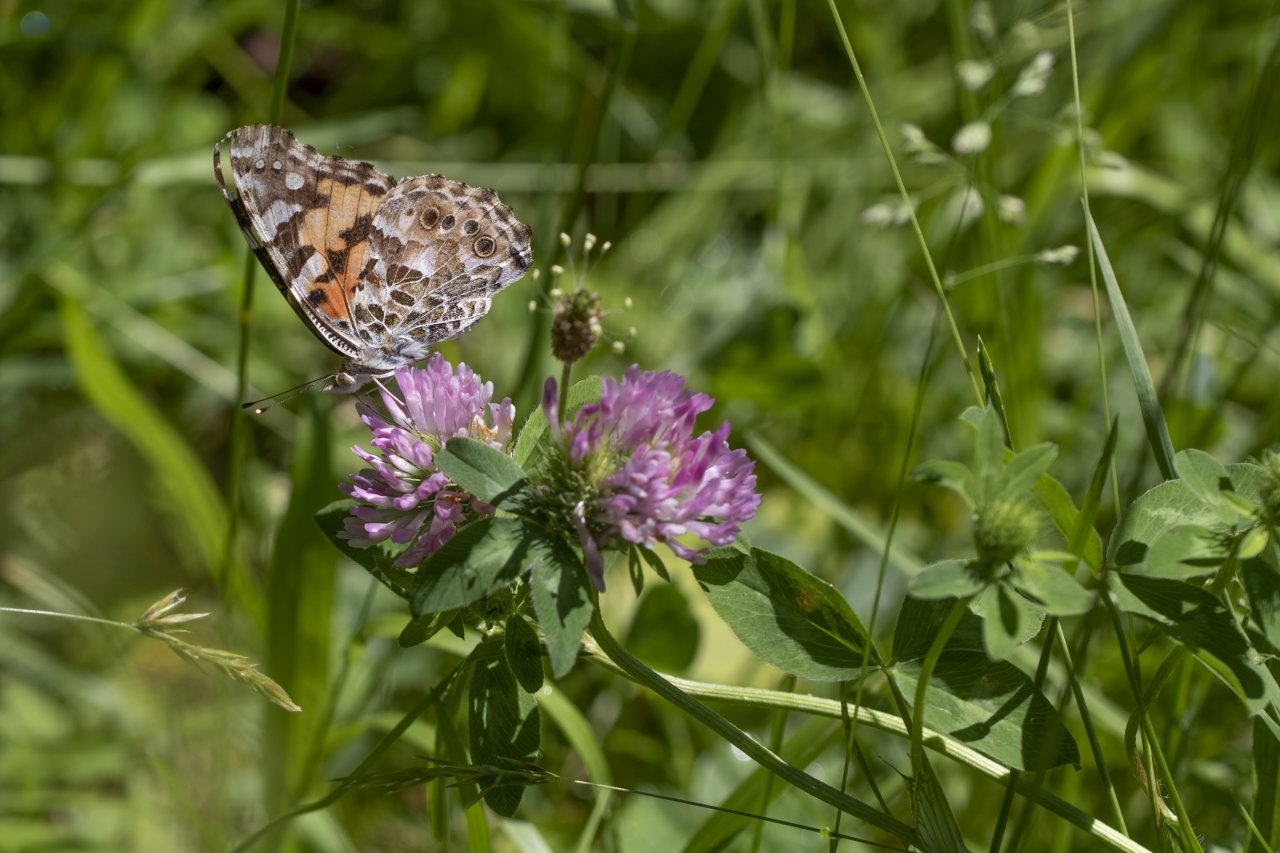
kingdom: Animalia
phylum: Arthropoda
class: Insecta
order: Lepidoptera
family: Nymphalidae
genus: Vanessa
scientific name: Vanessa cardui
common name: Painted Lady
